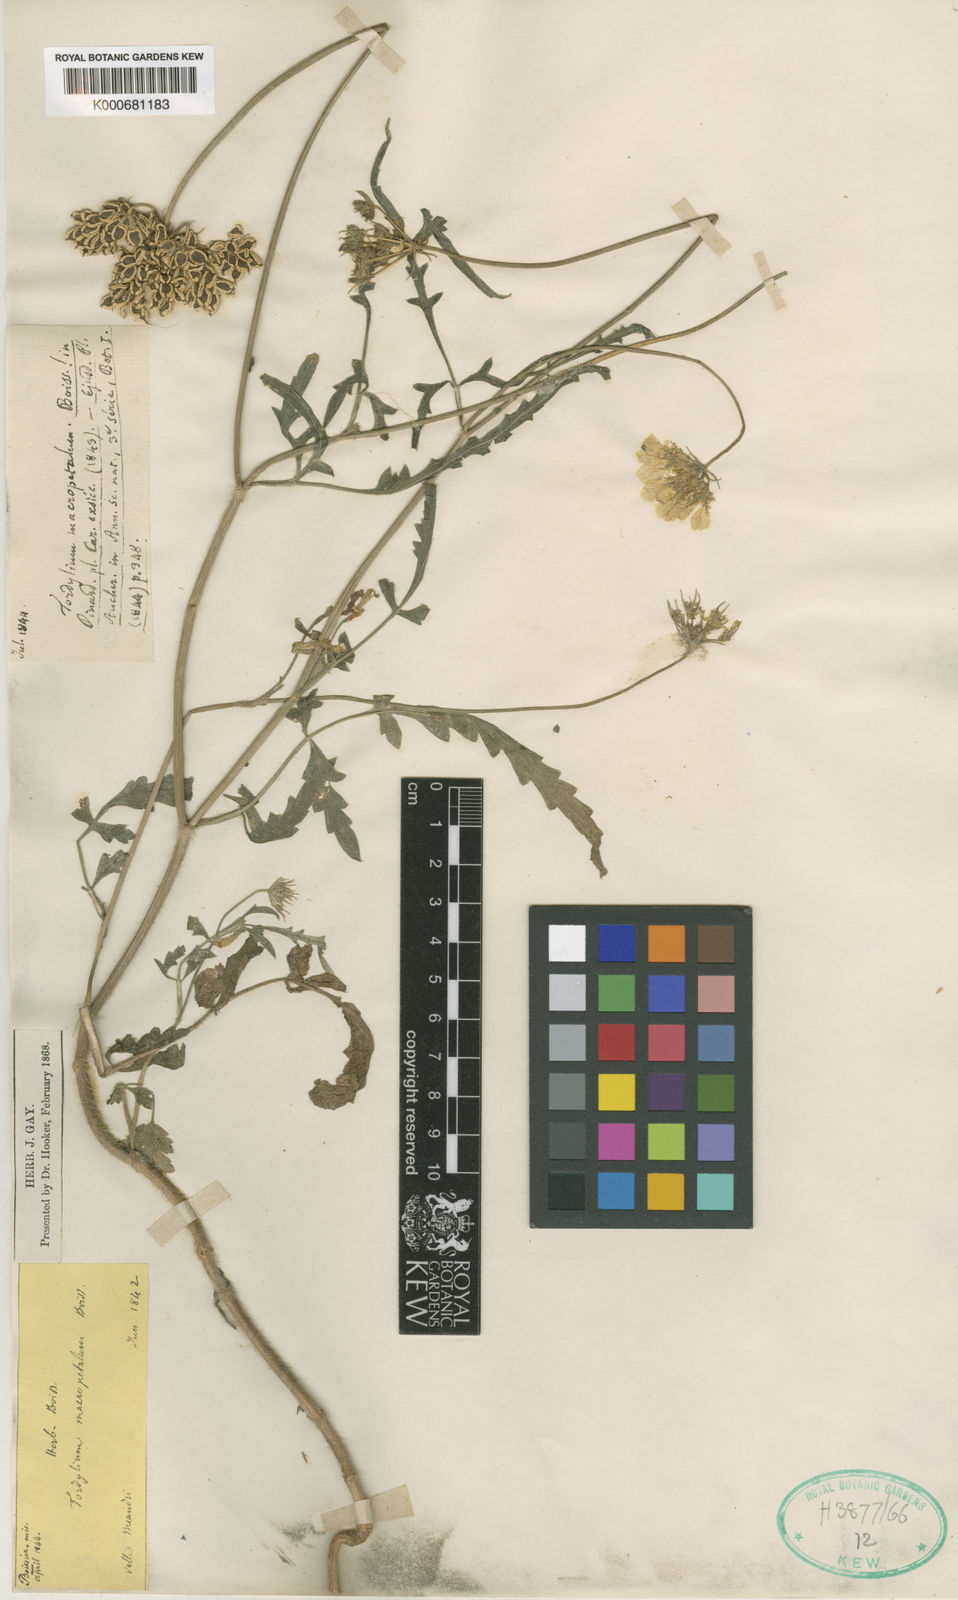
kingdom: Plantae
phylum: Tracheophyta
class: Magnoliopsida
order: Apiales
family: Apiaceae
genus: Tordylium
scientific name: Tordylium macropetalum
